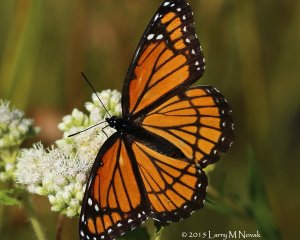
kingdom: Animalia
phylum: Arthropoda
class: Insecta
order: Lepidoptera
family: Nymphalidae
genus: Limenitis
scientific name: Limenitis archippus
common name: Viceroy
